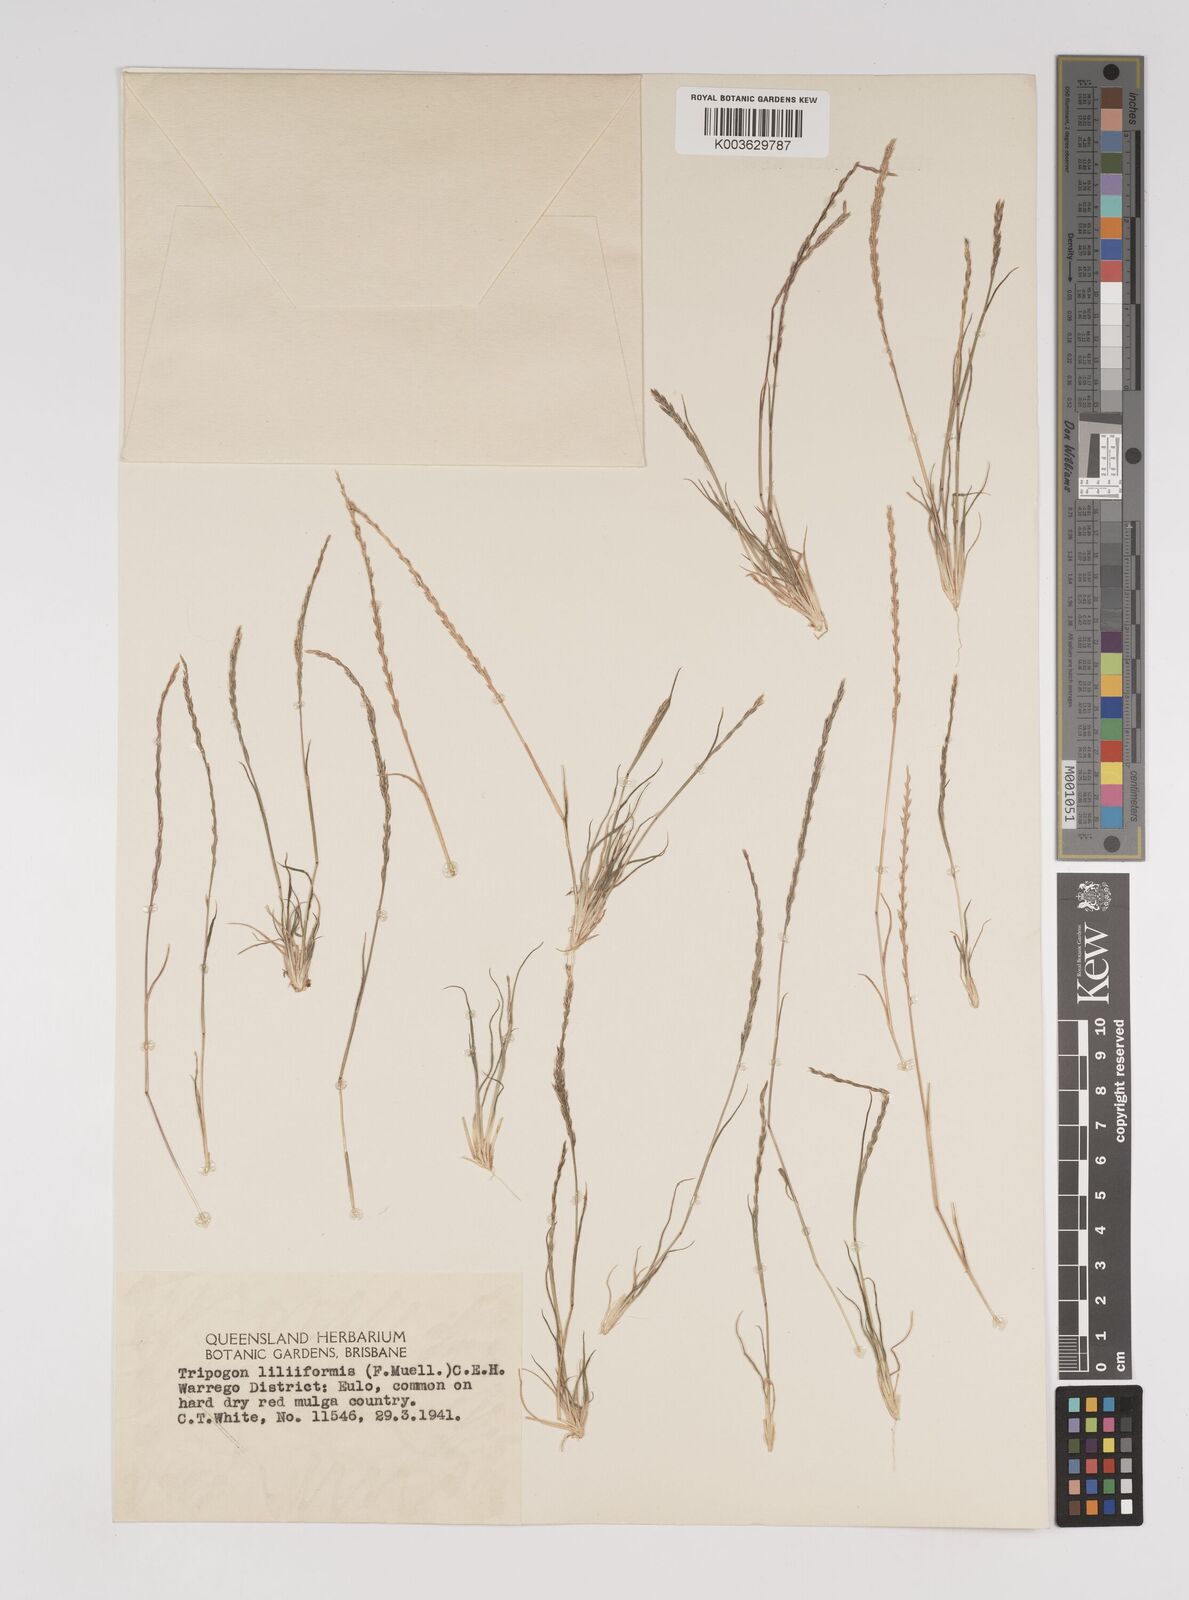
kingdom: Plantae
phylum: Tracheophyta
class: Liliopsida
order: Poales
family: Poaceae
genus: Tripogonella
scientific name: Tripogonella loliiformis
